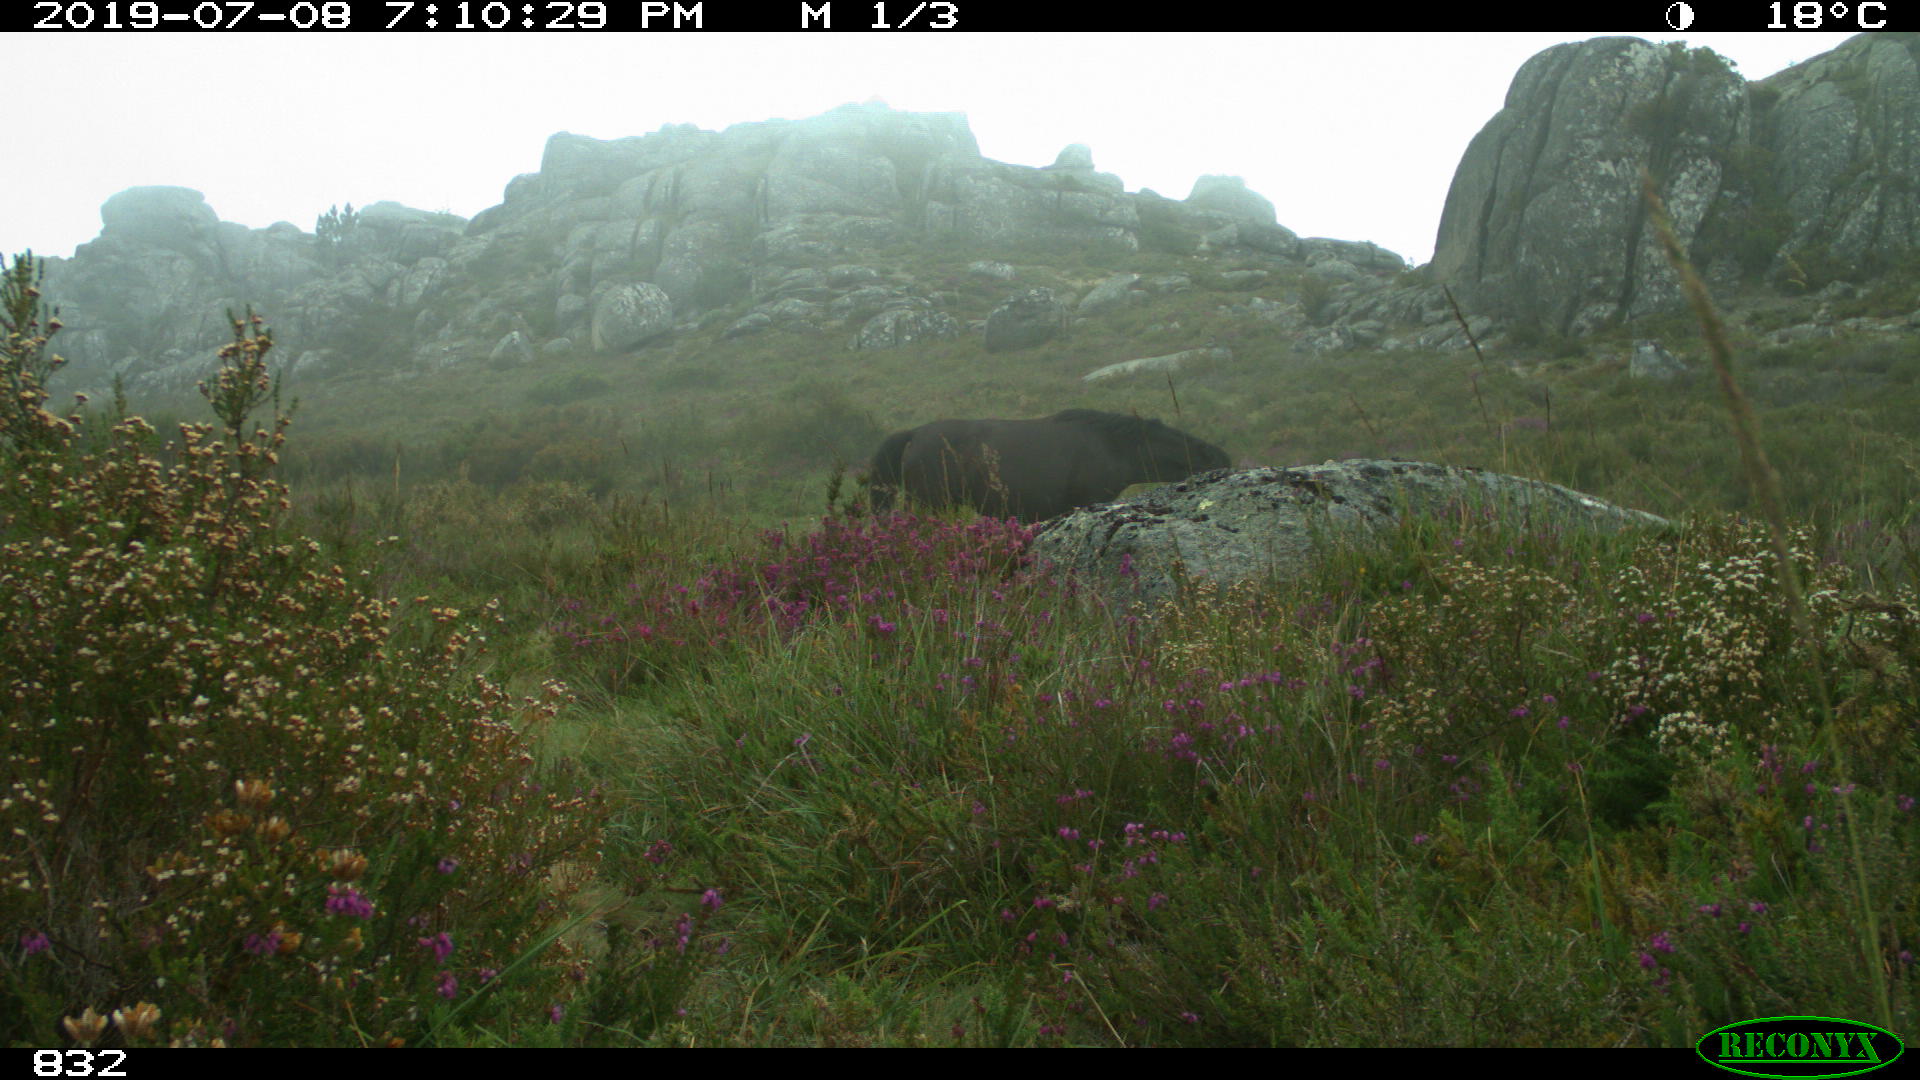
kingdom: Animalia
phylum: Chordata
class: Mammalia
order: Perissodactyla
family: Equidae
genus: Equus
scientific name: Equus caballus
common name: Horse
